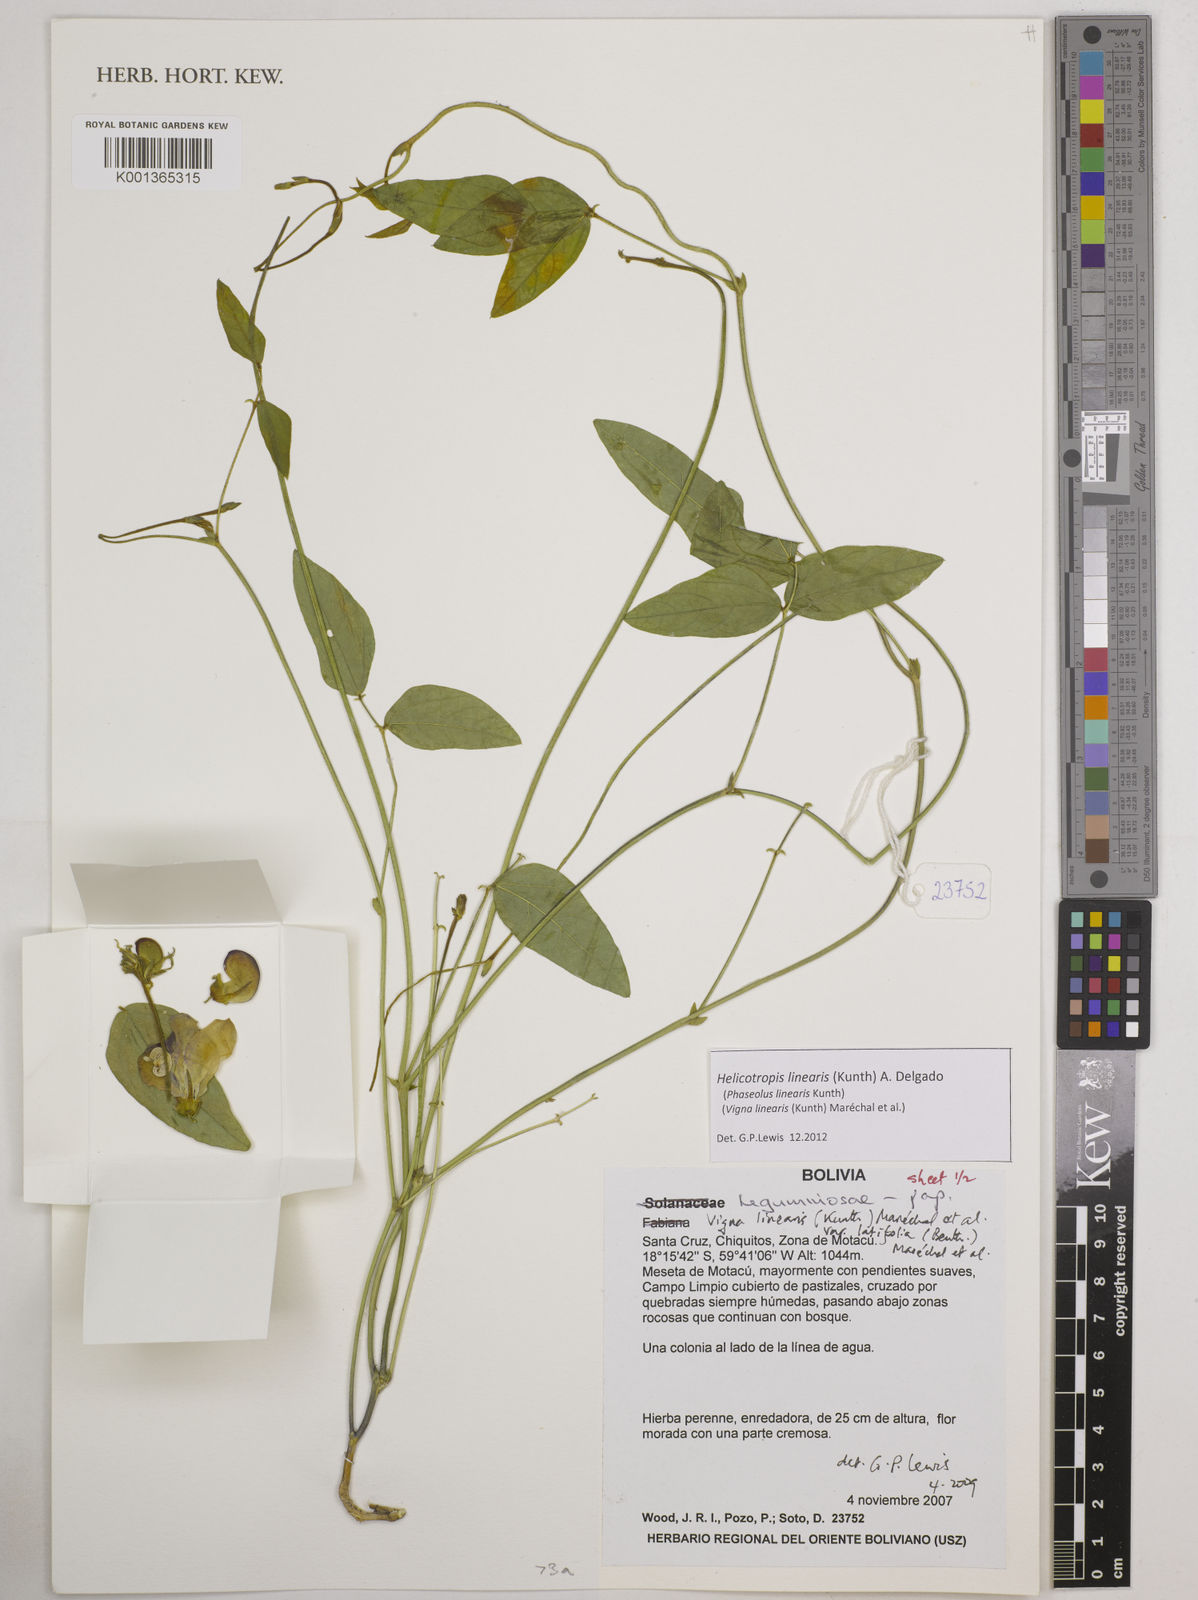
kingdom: Plantae
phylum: Tracheophyta
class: Magnoliopsida
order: Fabales
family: Fabaceae
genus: Helicotropis
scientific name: Helicotropis linearis
